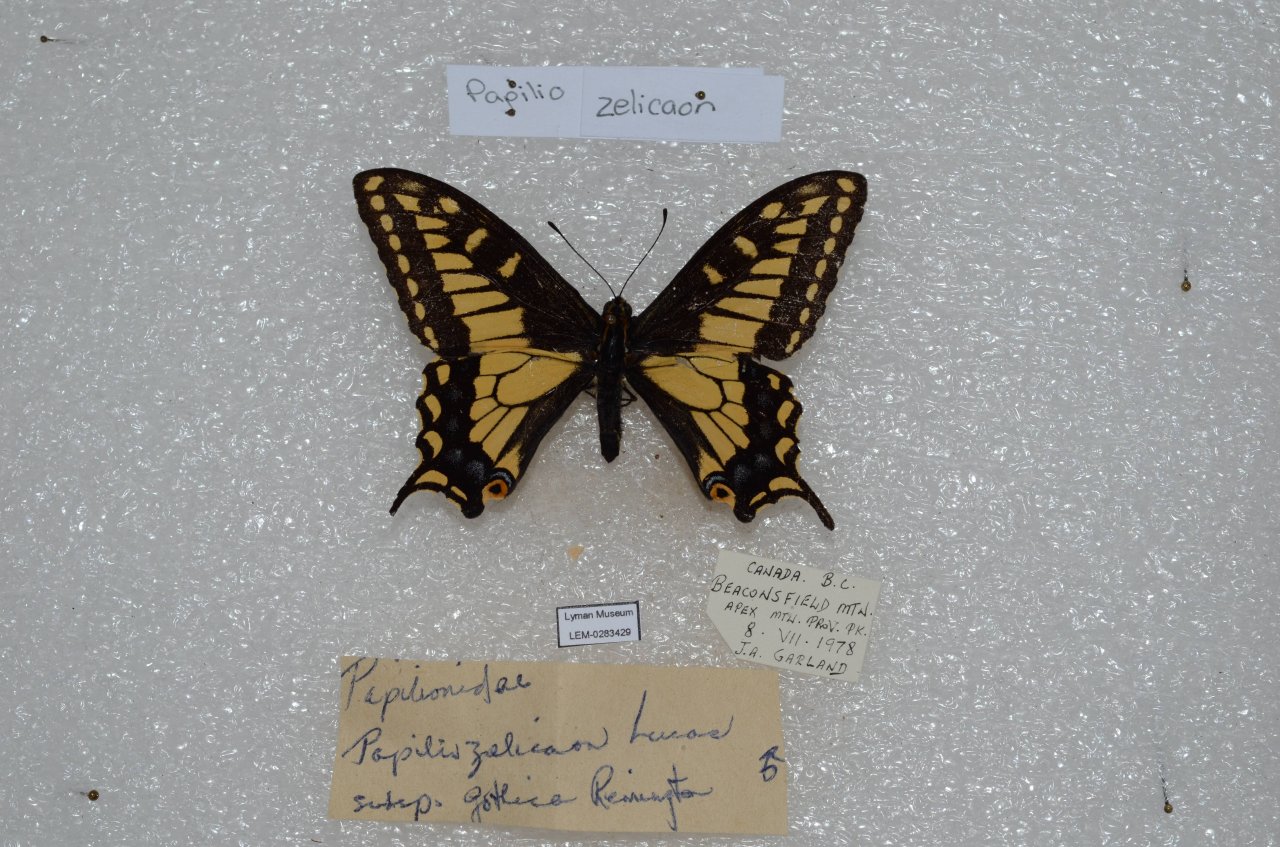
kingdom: Animalia
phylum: Arthropoda
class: Insecta
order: Lepidoptera
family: Papilionidae
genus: Papilio
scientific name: Papilio zelicaon
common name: Anise Swallowtail
